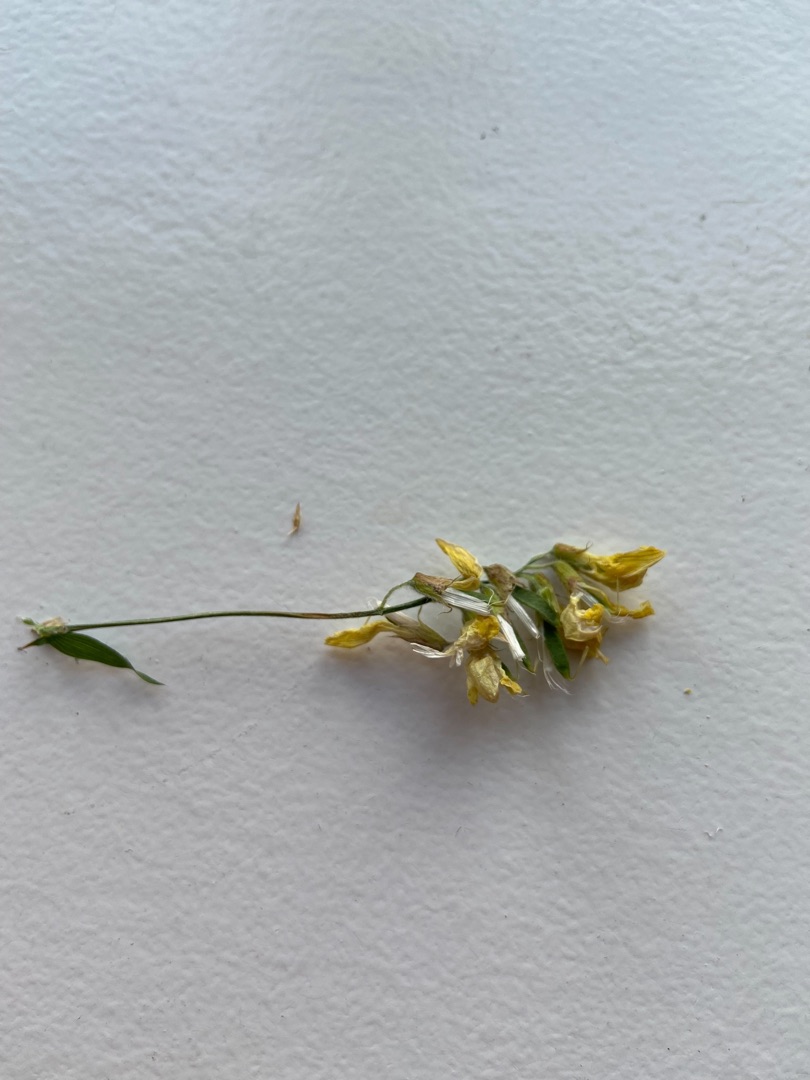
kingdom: Plantae
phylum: Tracheophyta
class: Magnoliopsida
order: Fabales
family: Fabaceae
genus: Lathyrus
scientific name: Lathyrus pratensis
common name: Gul fladbælg
